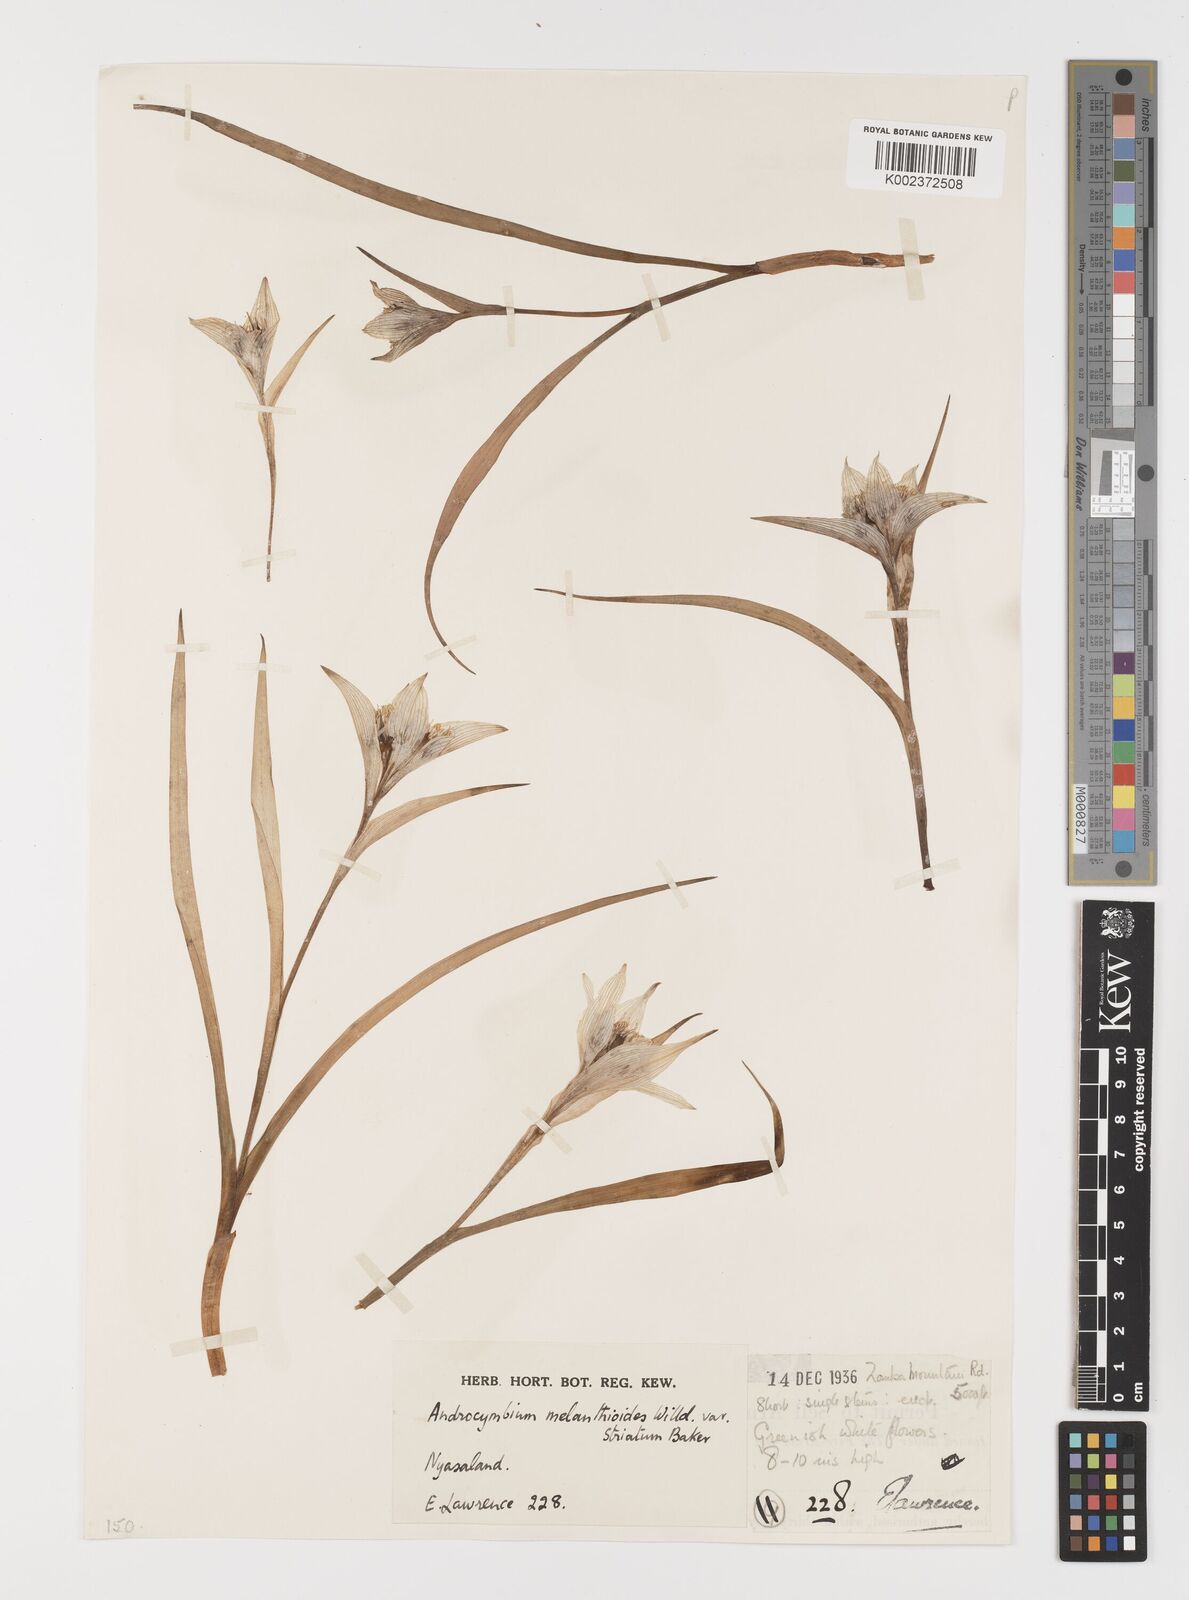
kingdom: Plantae
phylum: Tracheophyta
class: Liliopsida
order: Liliales
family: Colchicaceae
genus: Colchicum
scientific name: Colchicum melanthioides
